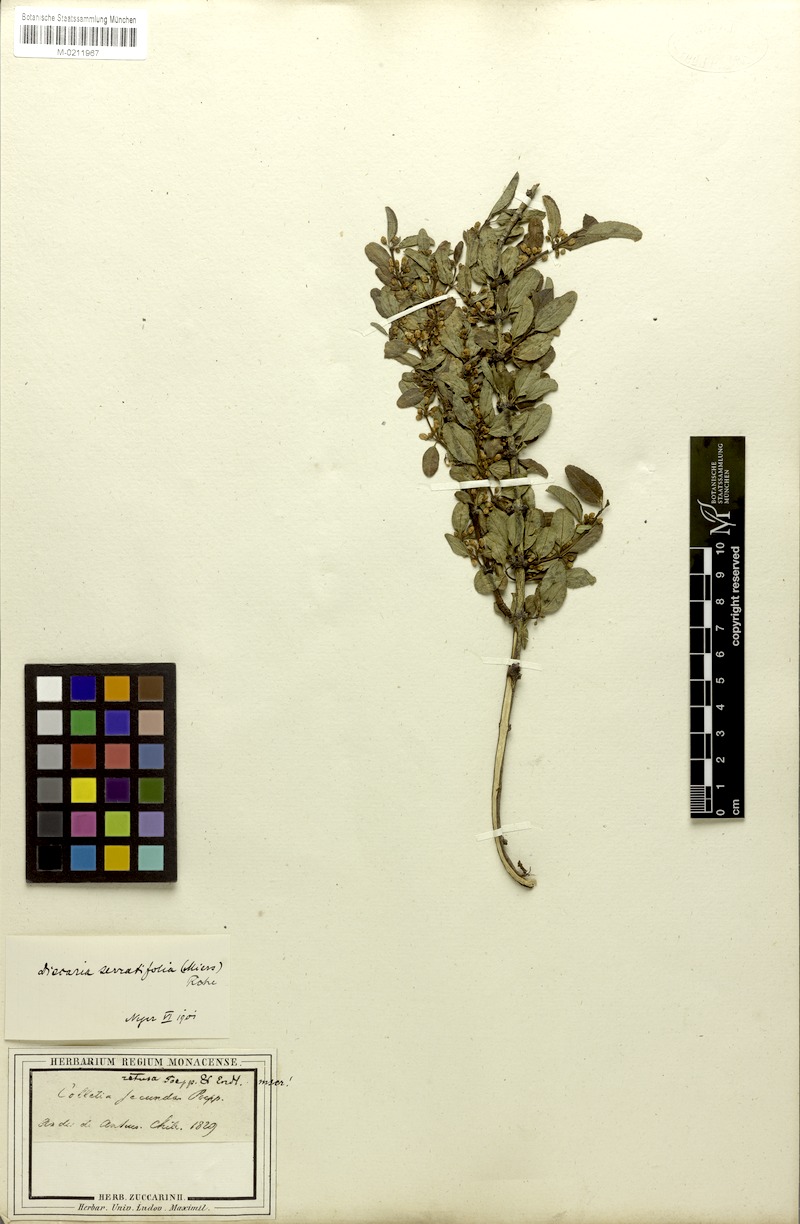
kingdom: Plantae
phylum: Tracheophyta
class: Magnoliopsida
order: Rosales
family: Rhamnaceae
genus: Discaria
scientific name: Discaria serratifolia
